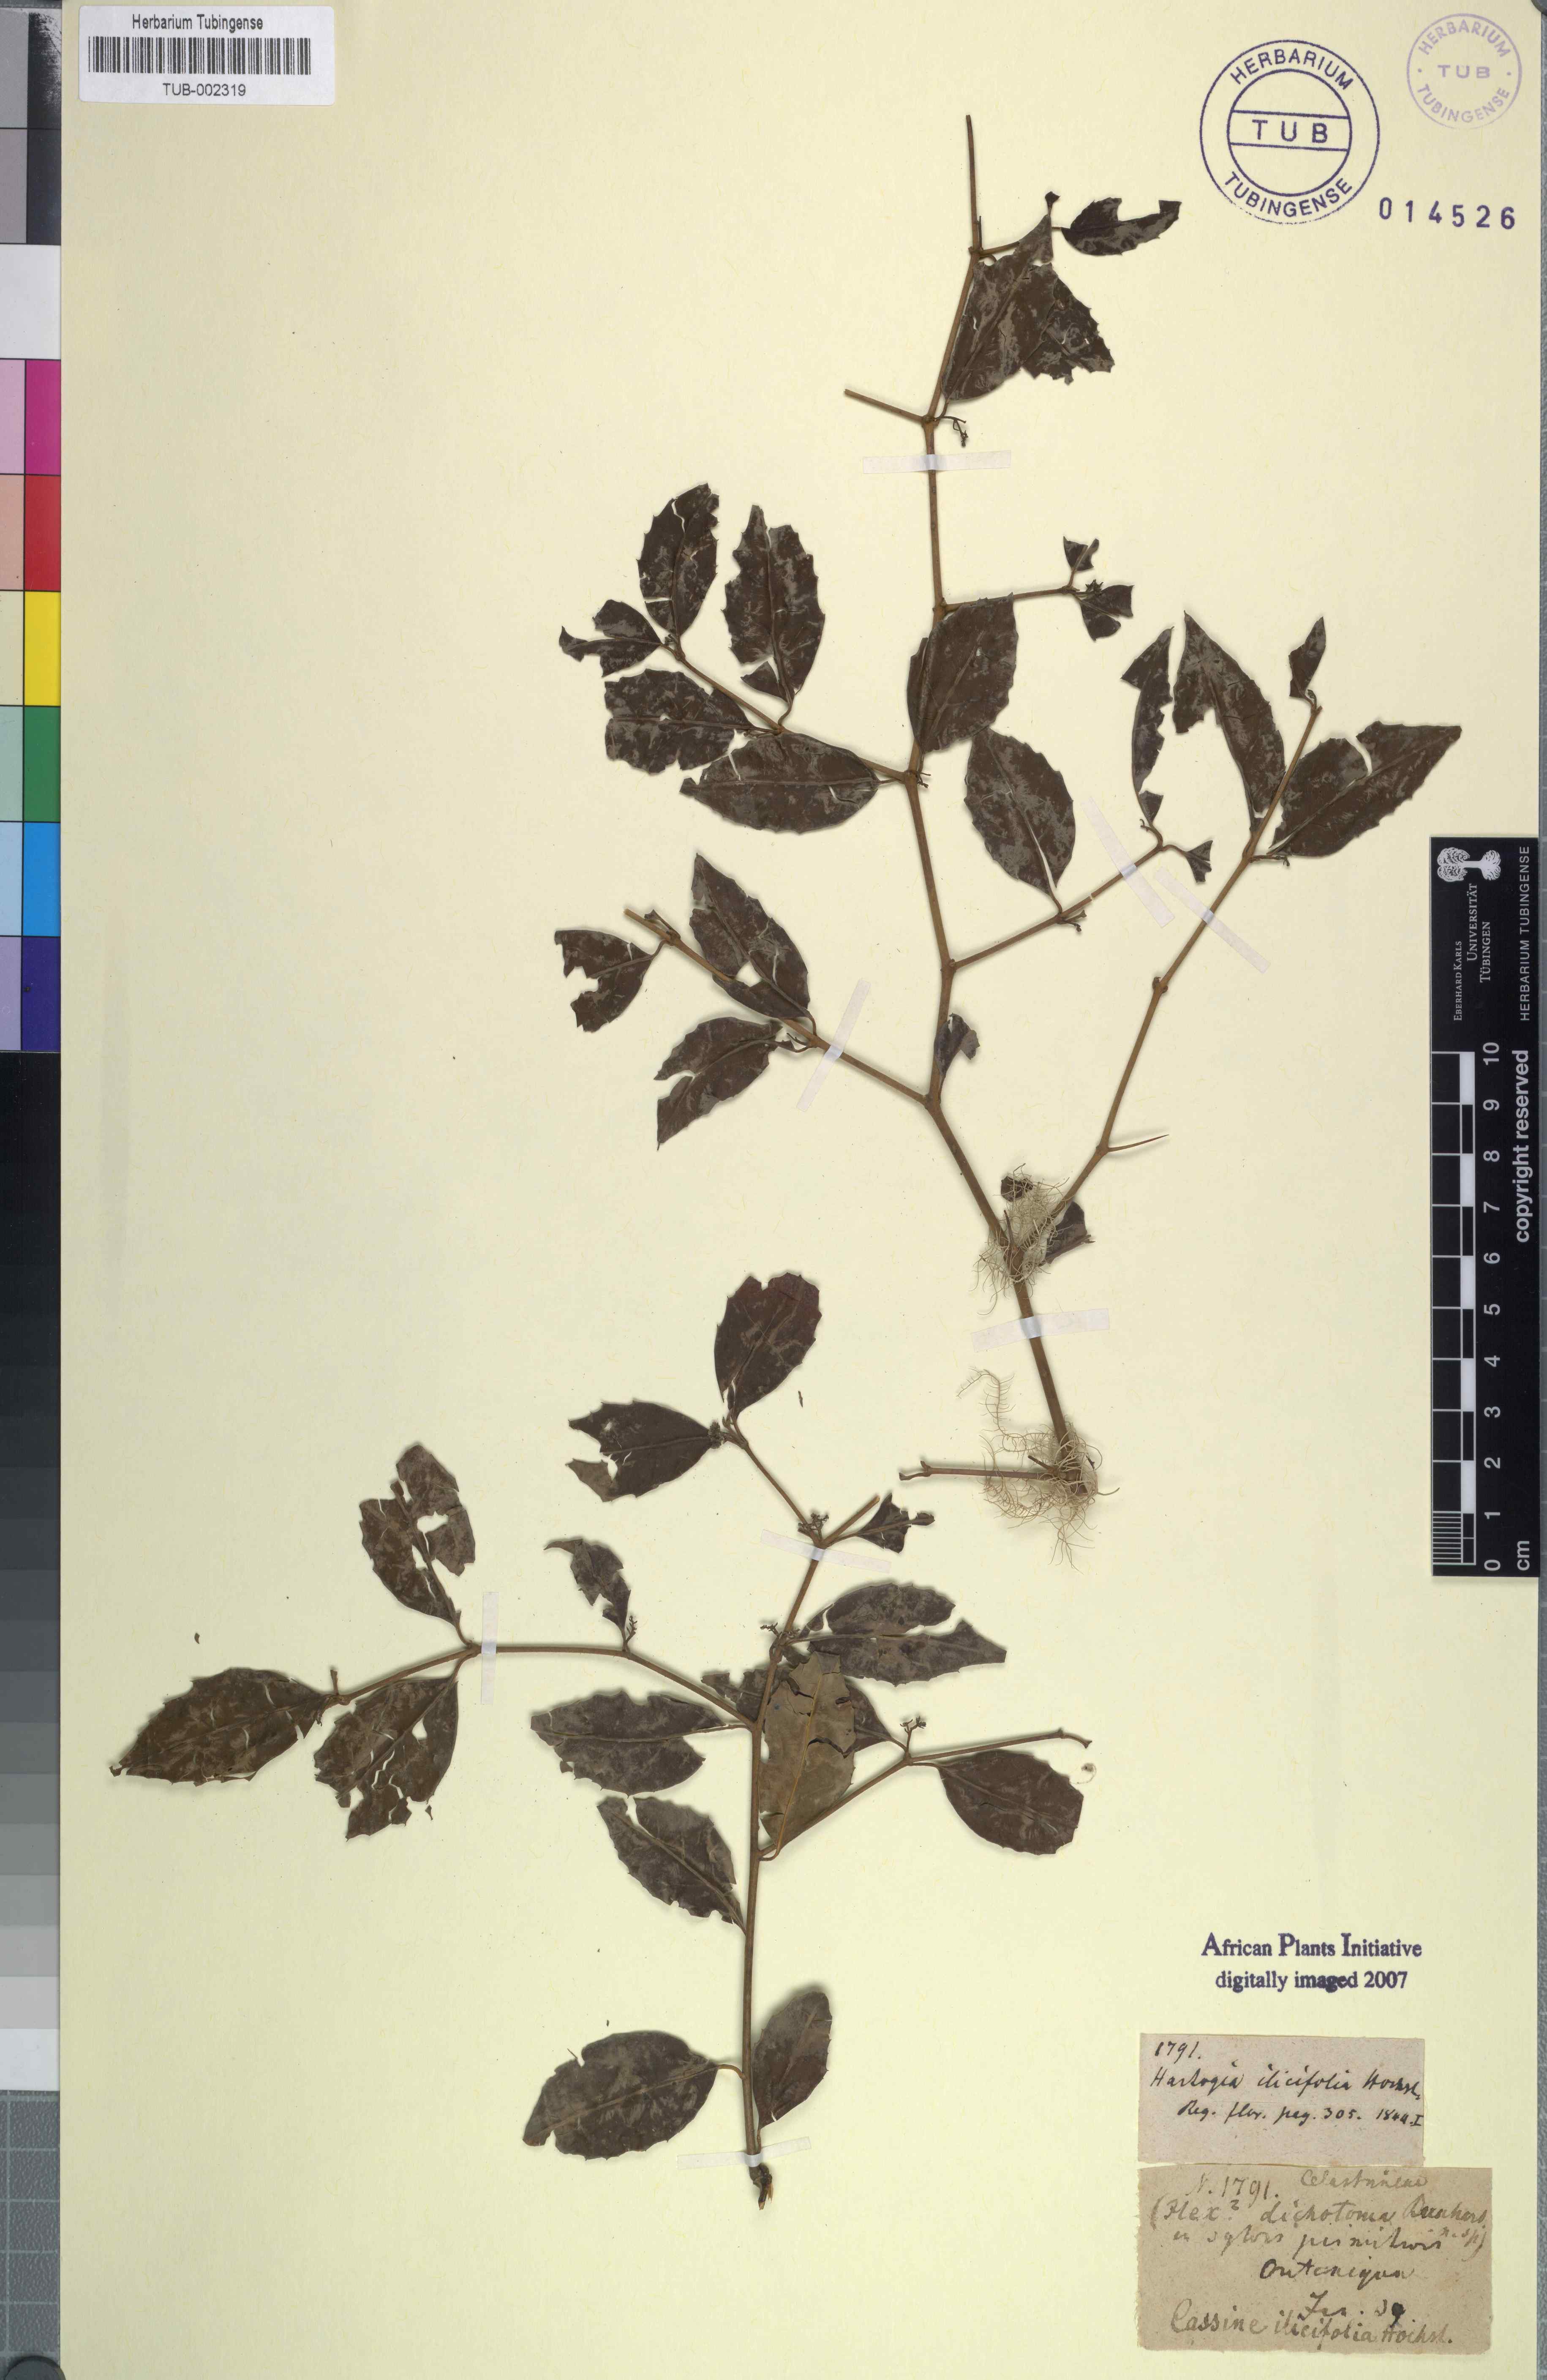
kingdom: Plantae
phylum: Tracheophyta
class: Magnoliopsida
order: Icacinales
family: Icacinaceae
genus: Cassinopsis
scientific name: Cassinopsis ilicifolia
